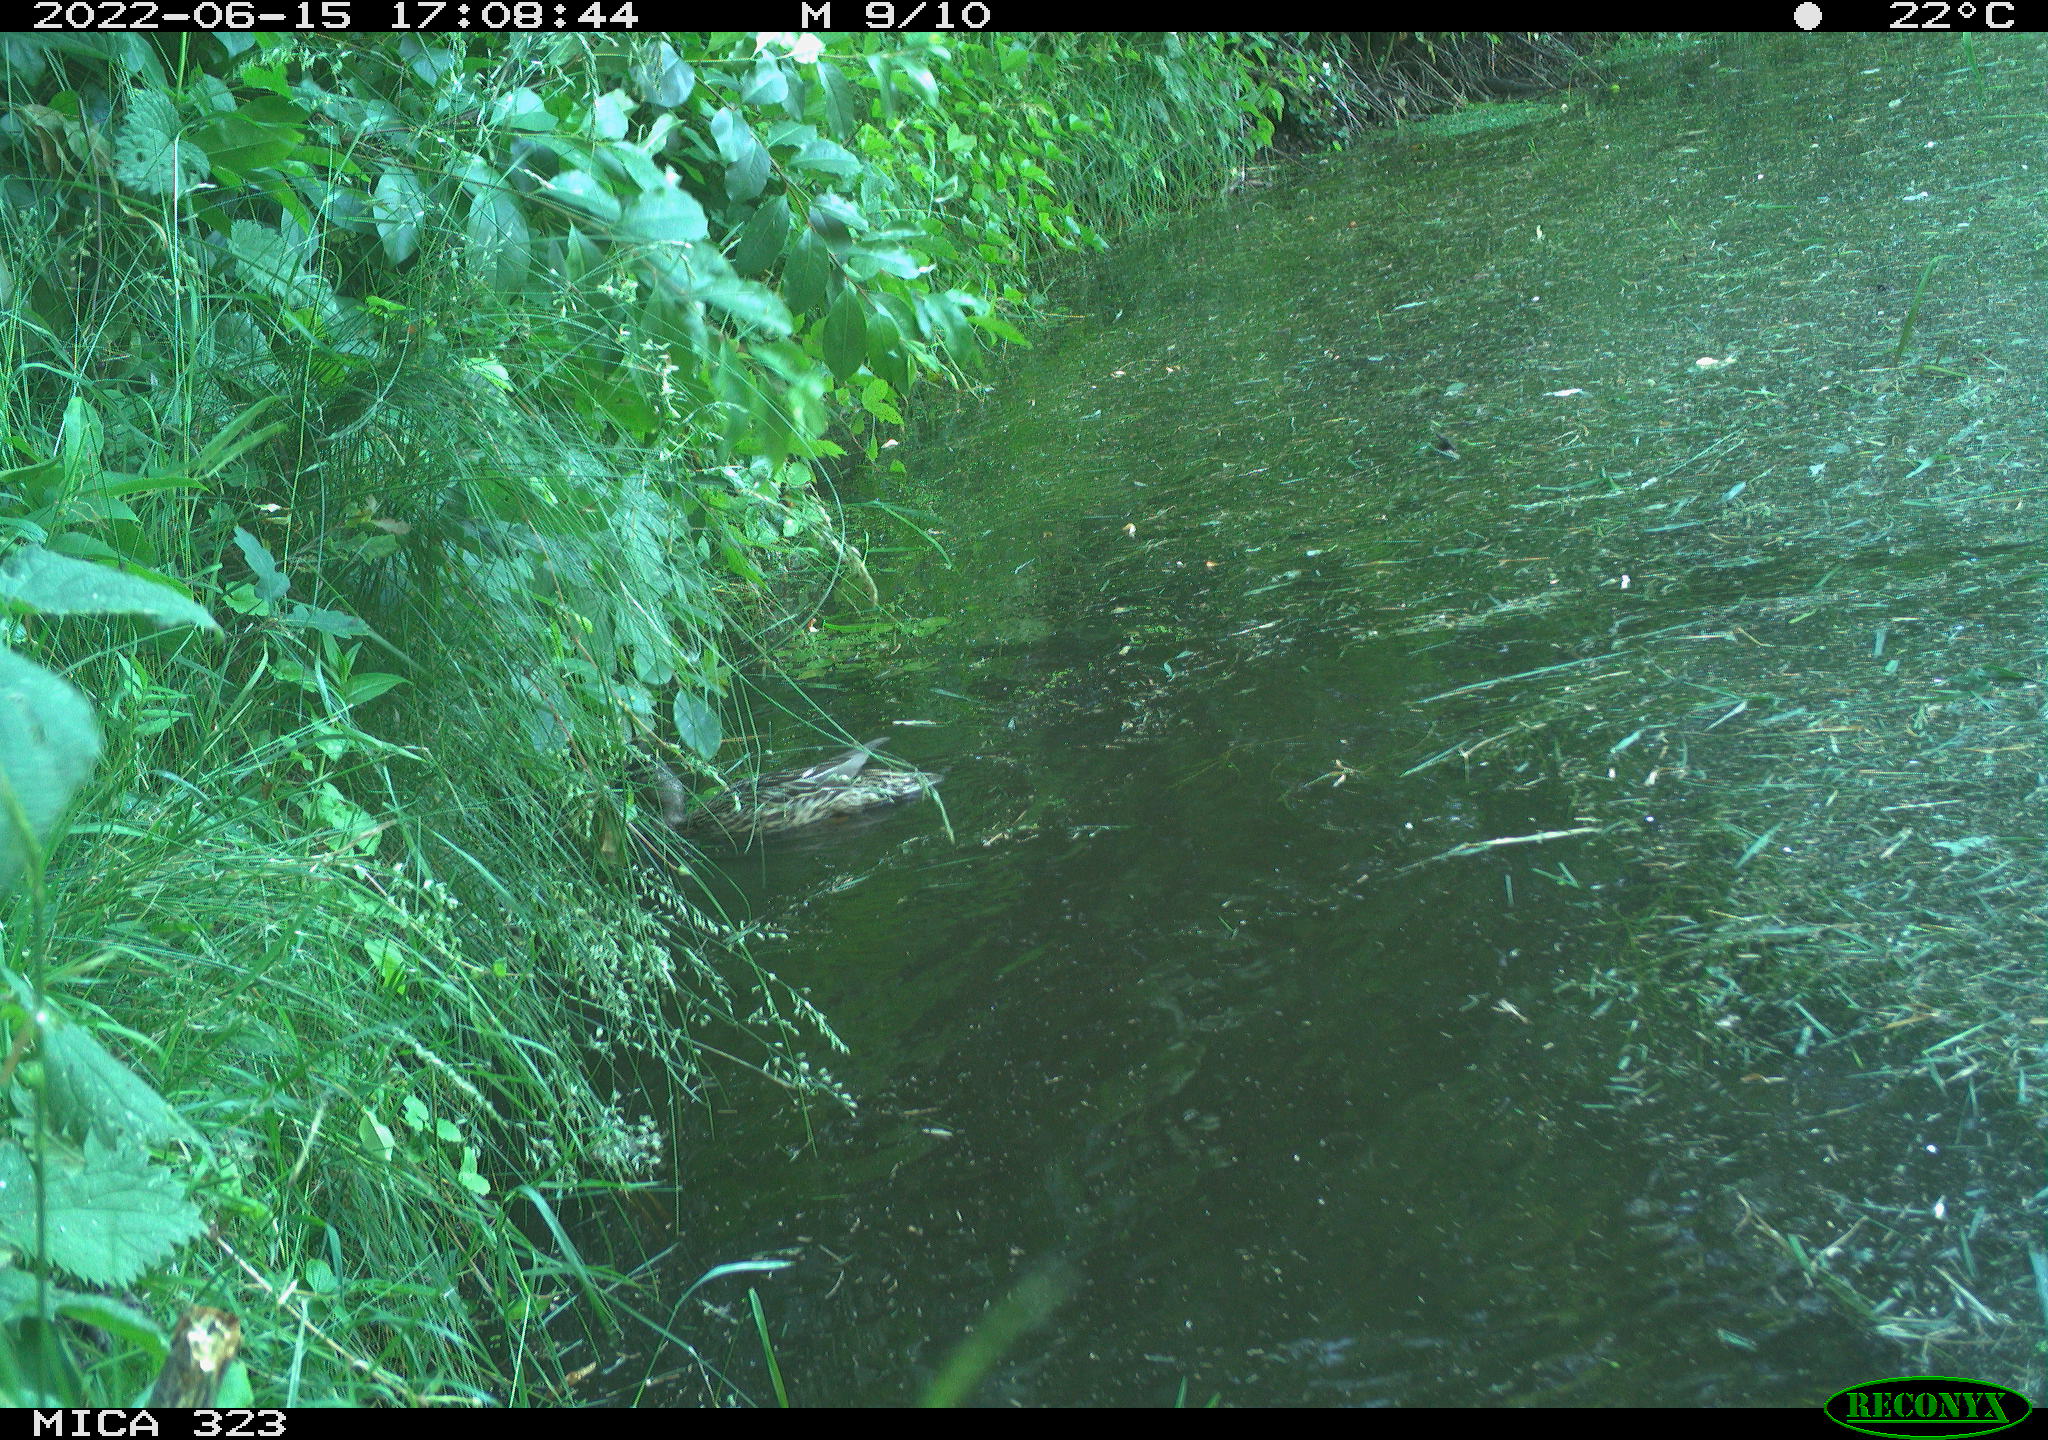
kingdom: Animalia
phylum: Chordata
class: Aves
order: Anseriformes
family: Anatidae
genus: Anas
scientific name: Anas platyrhynchos
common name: Mallard
